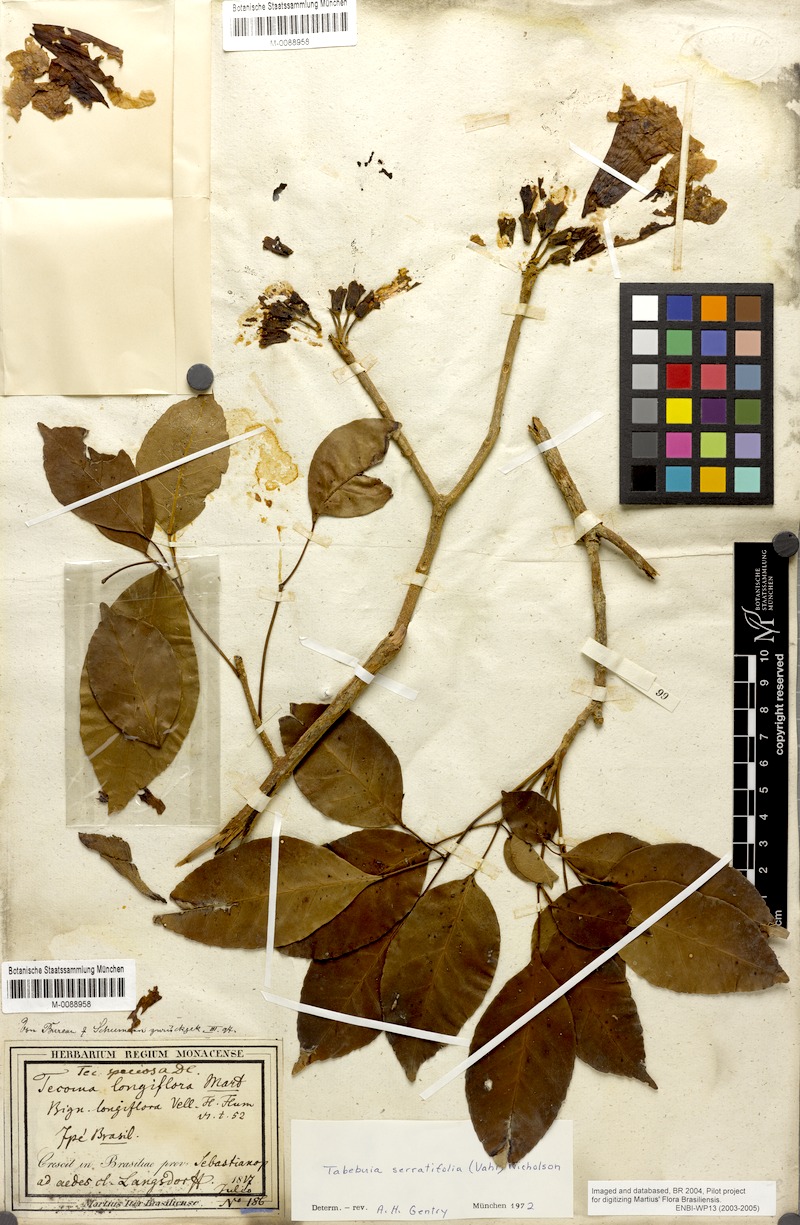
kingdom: Plantae
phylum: Tracheophyta
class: Magnoliopsida
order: Lamiales
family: Bignoniaceae
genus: Handroanthus
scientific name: Handroanthus serratifolius
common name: Yellow ipe
